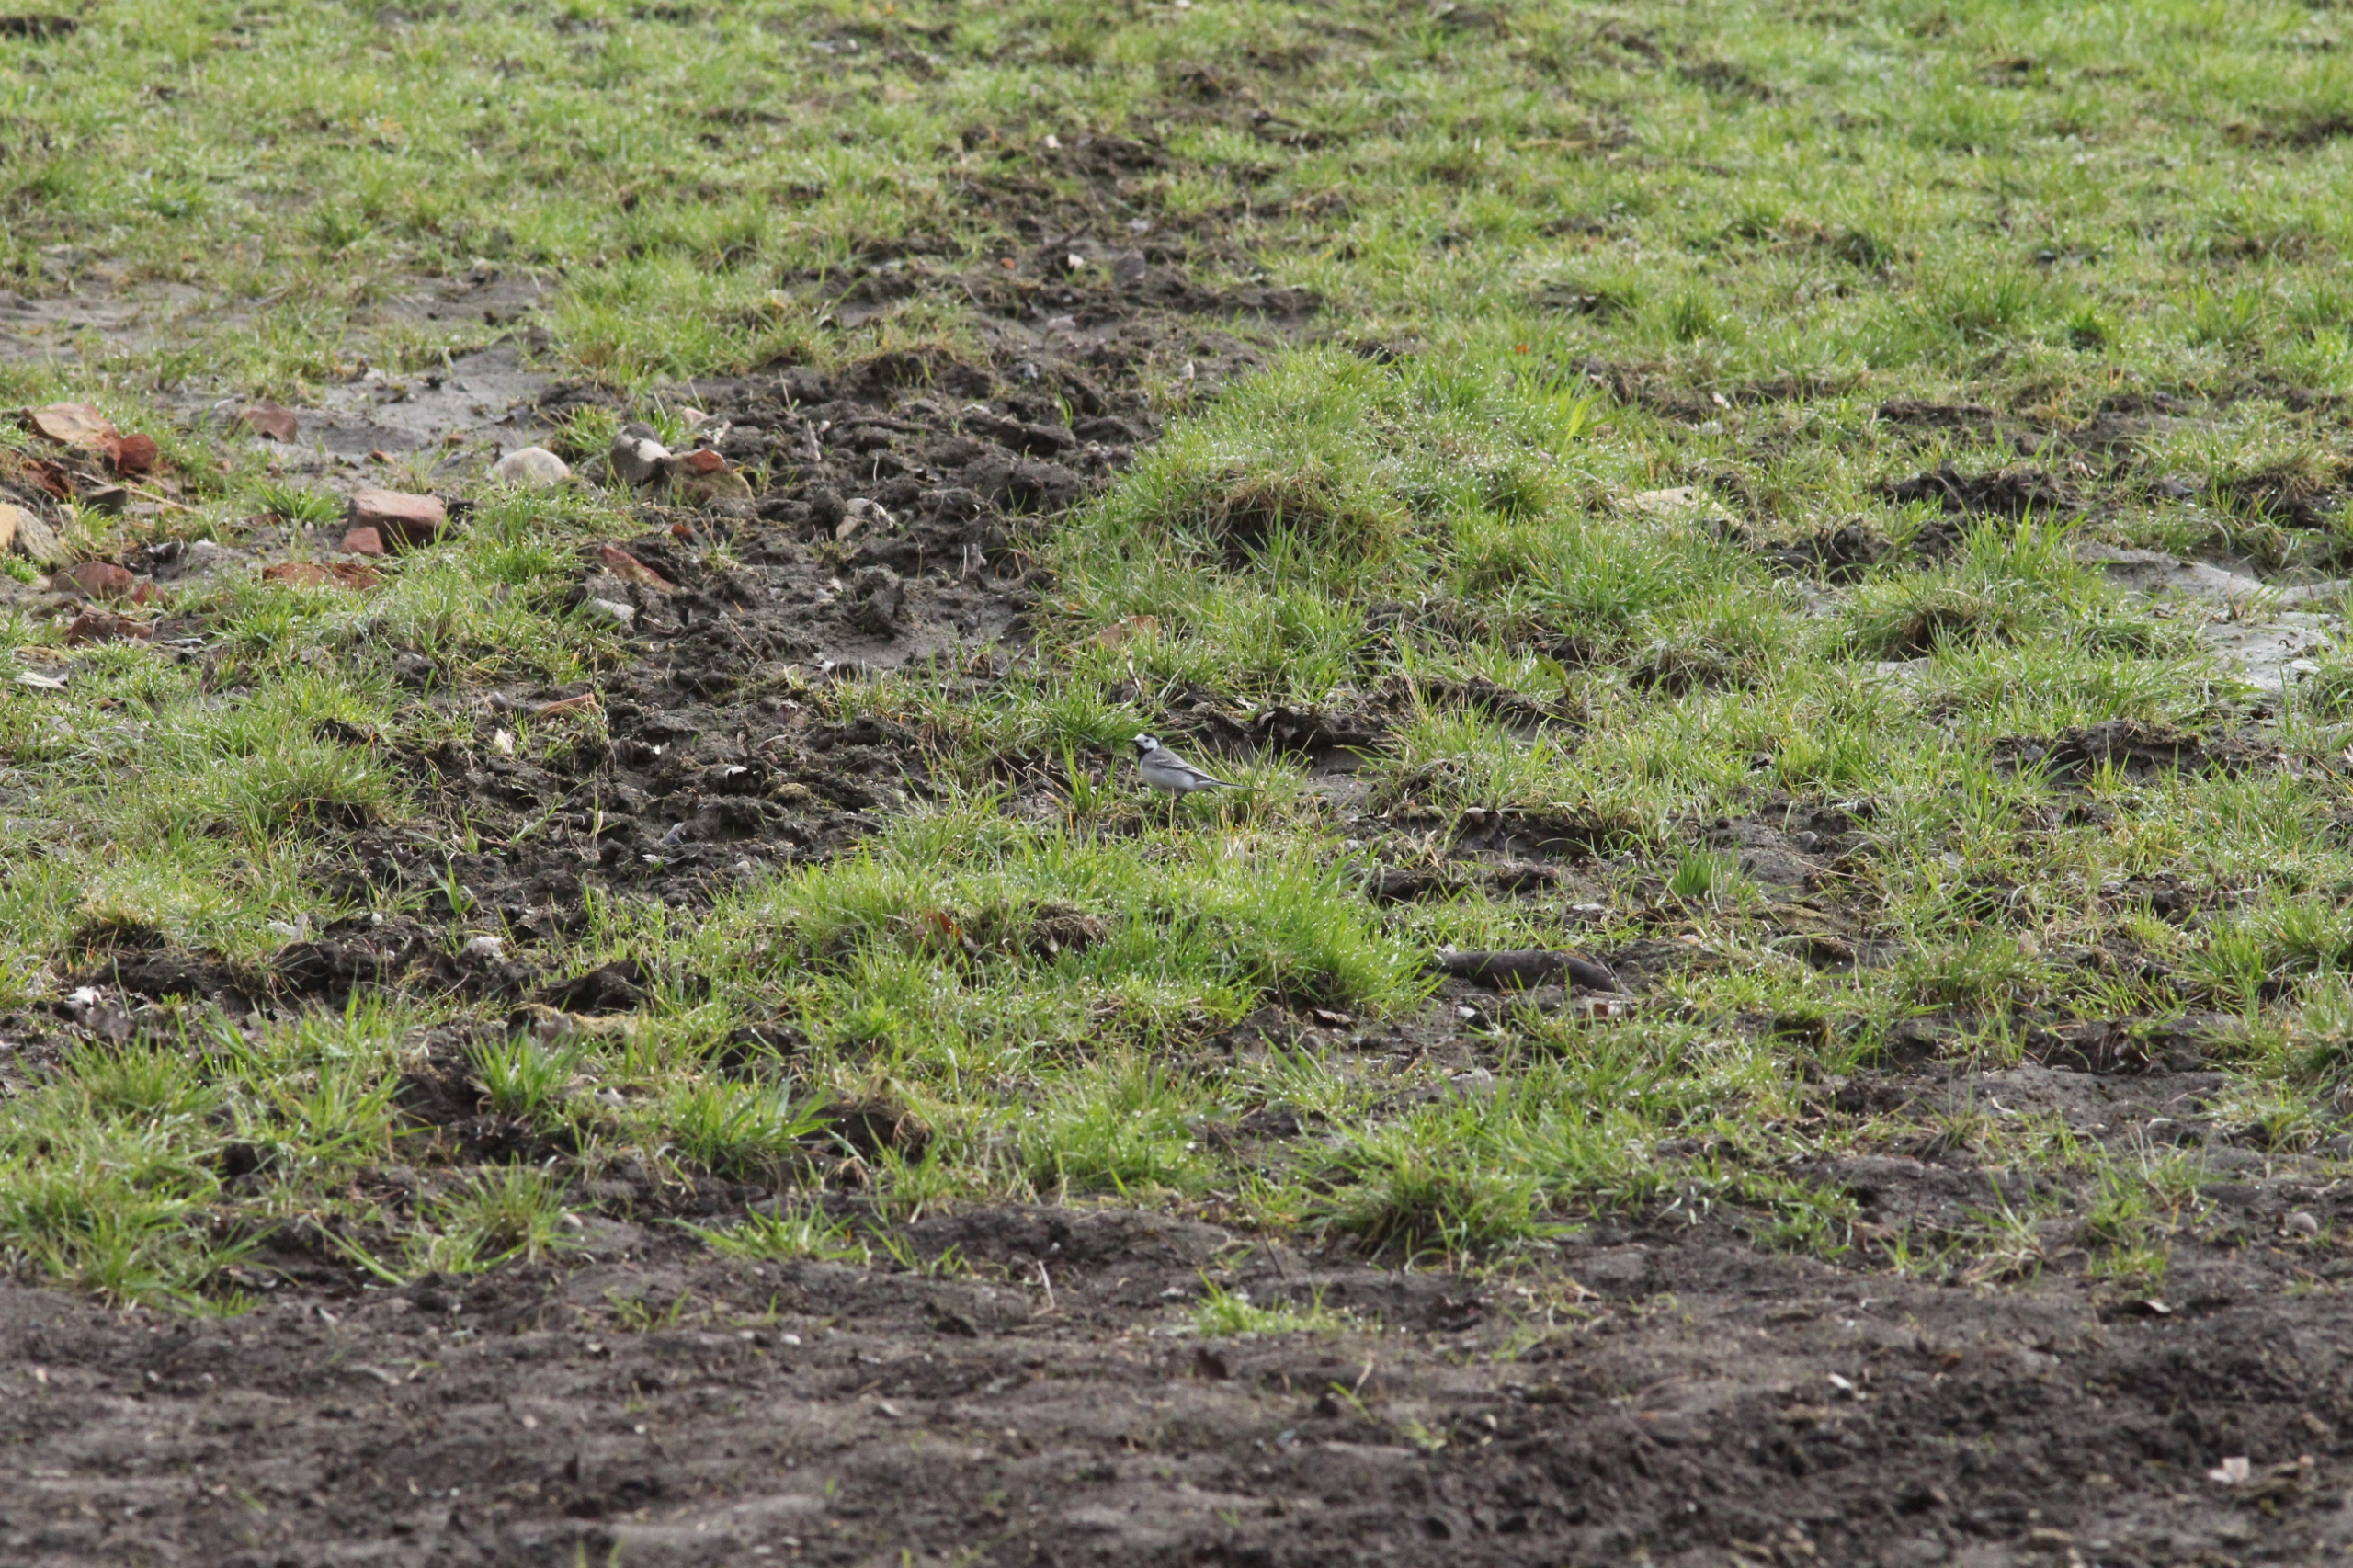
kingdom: Animalia
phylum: Chordata
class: Aves
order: Passeriformes
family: Motacillidae
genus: Motacilla
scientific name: Motacilla alba
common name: Hvid vipstjert
